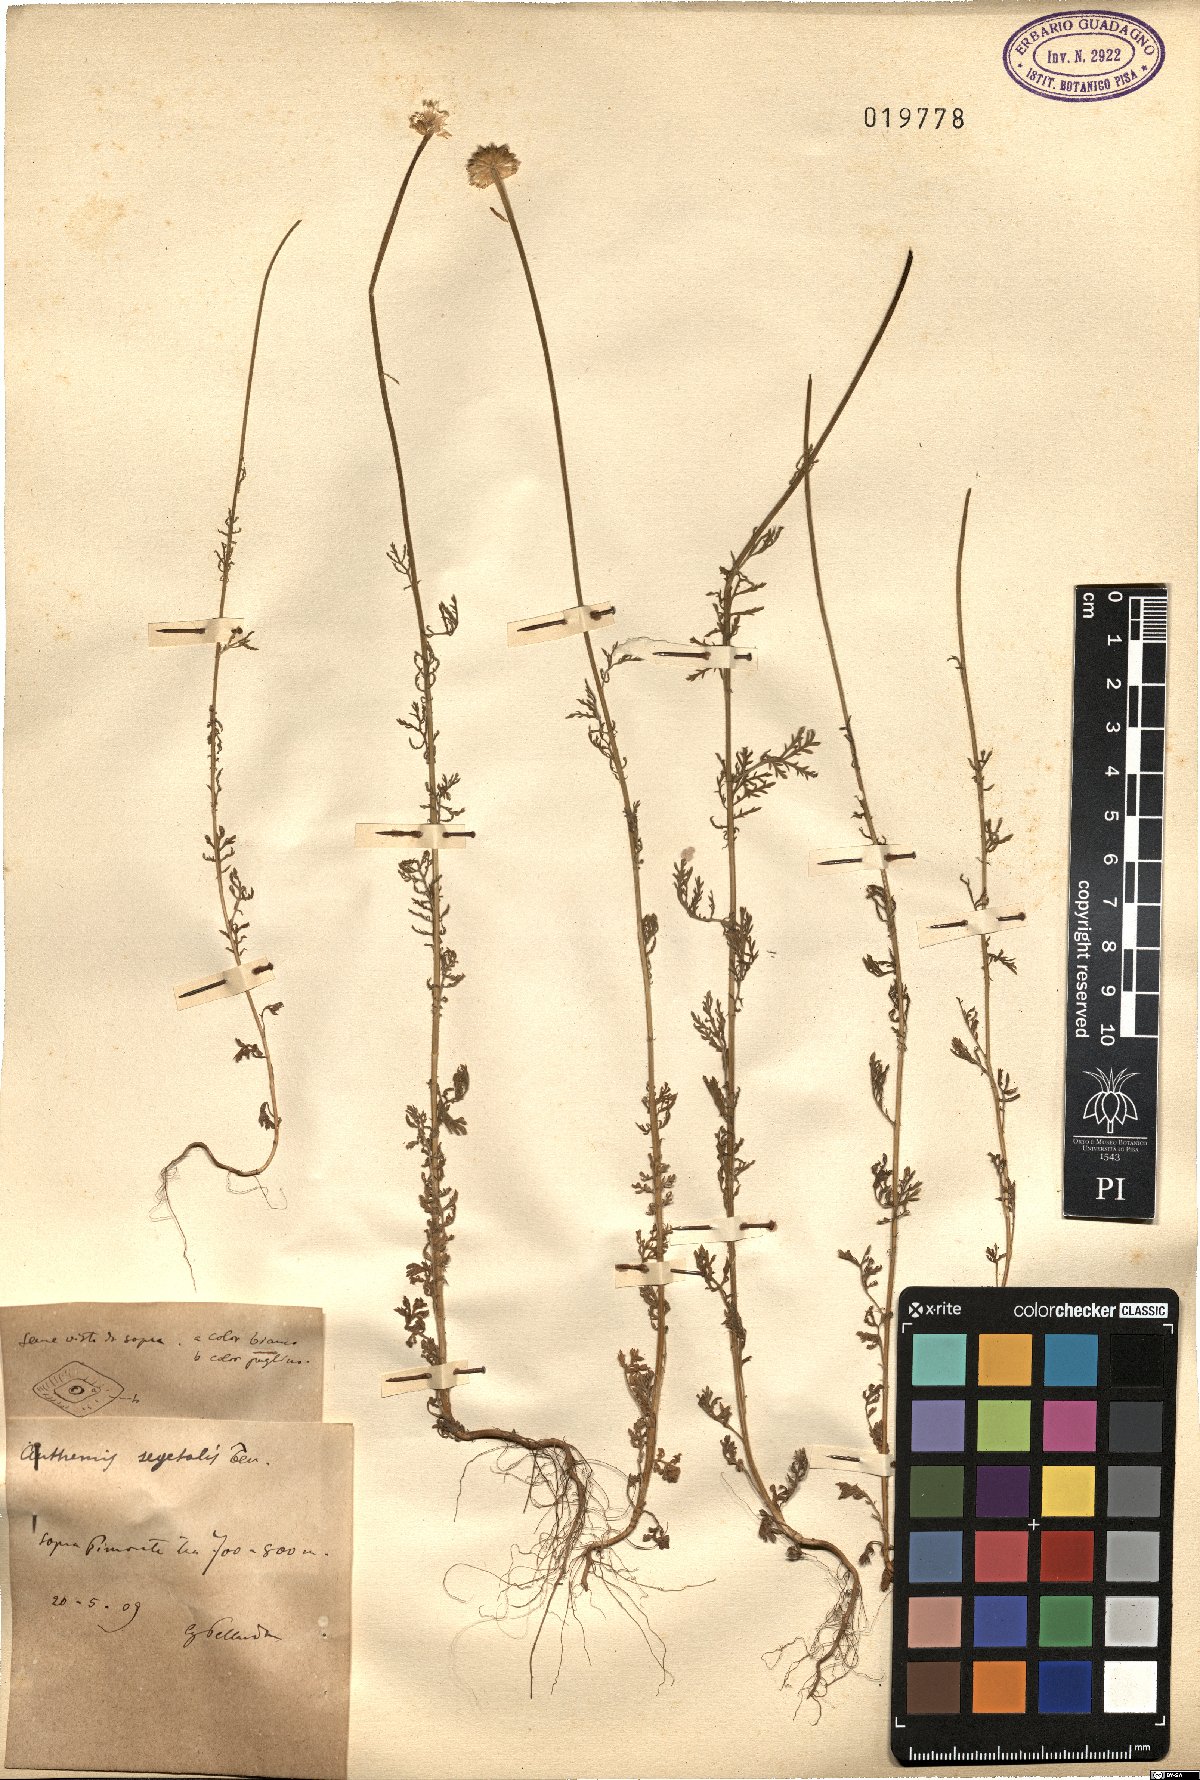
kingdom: Plantae
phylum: Tracheophyta
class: Magnoliopsida
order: Asterales
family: Asteraceae
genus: Cota
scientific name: Cota segetalis
